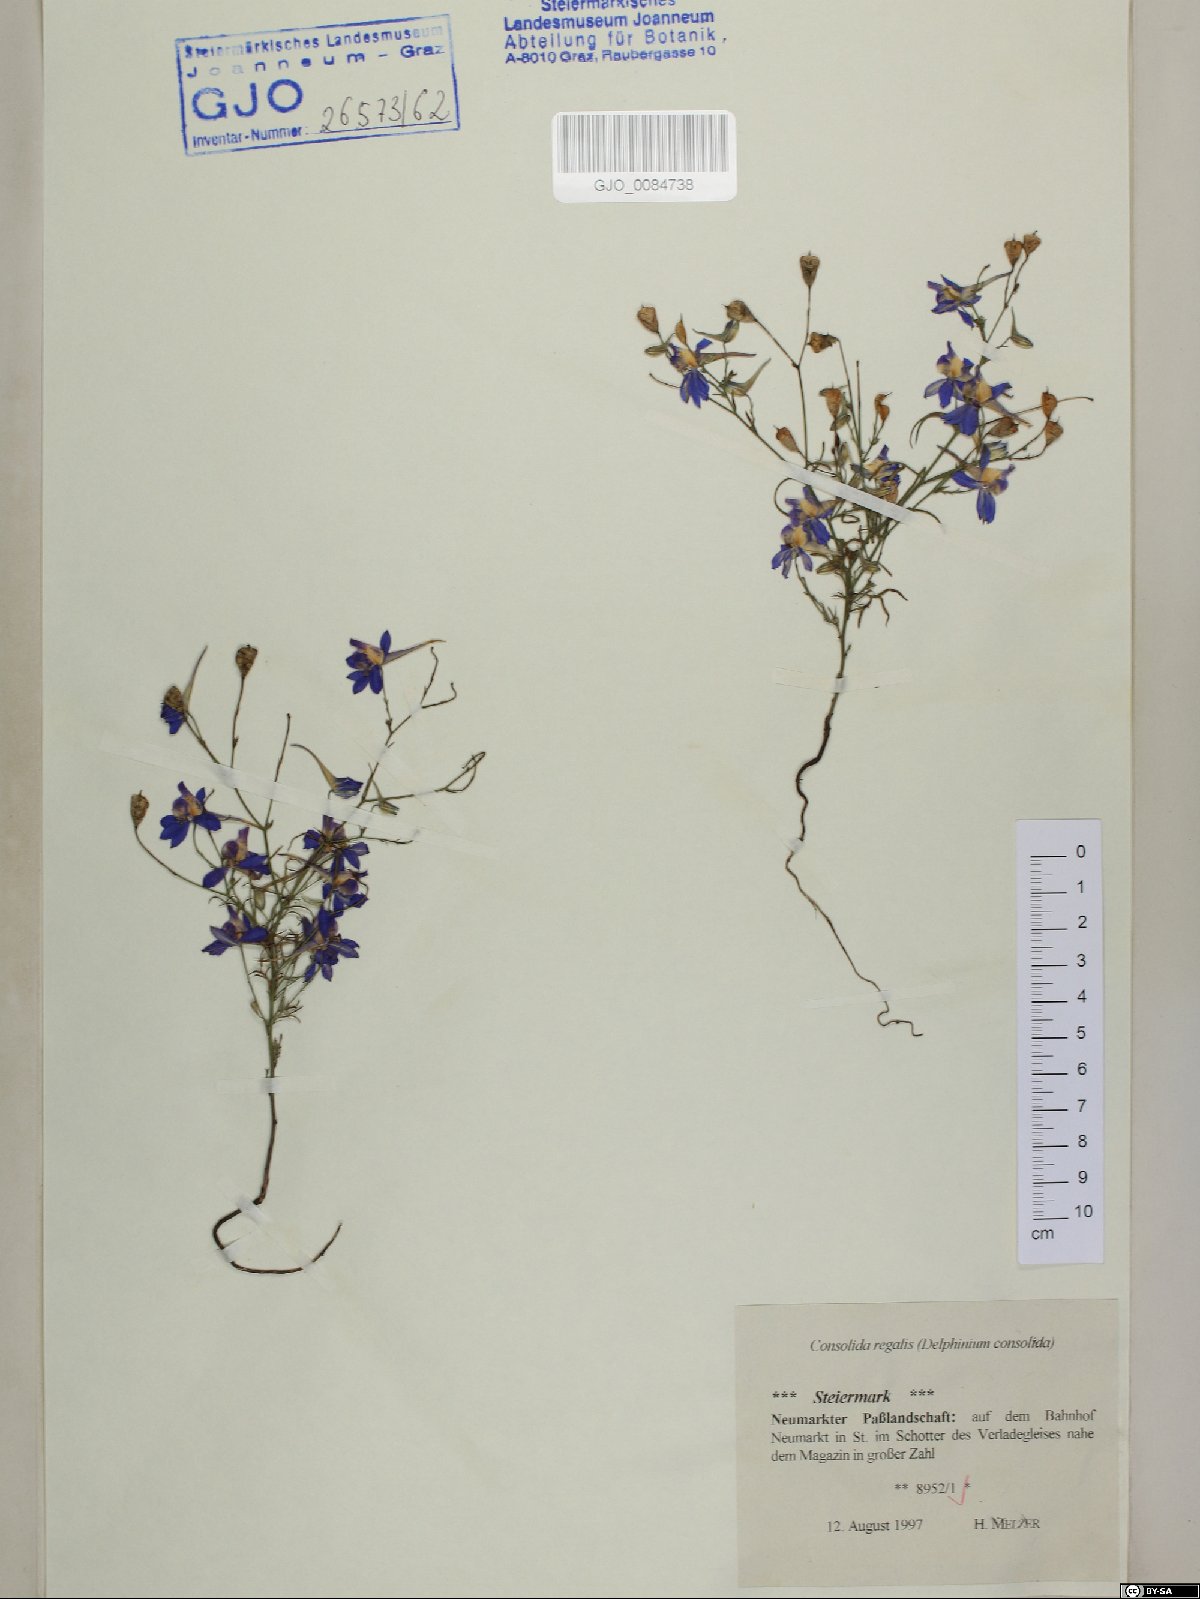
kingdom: Plantae
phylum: Tracheophyta
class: Magnoliopsida
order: Ranunculales
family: Ranunculaceae
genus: Delphinium
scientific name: Delphinium consolida
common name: Branching larkspur
